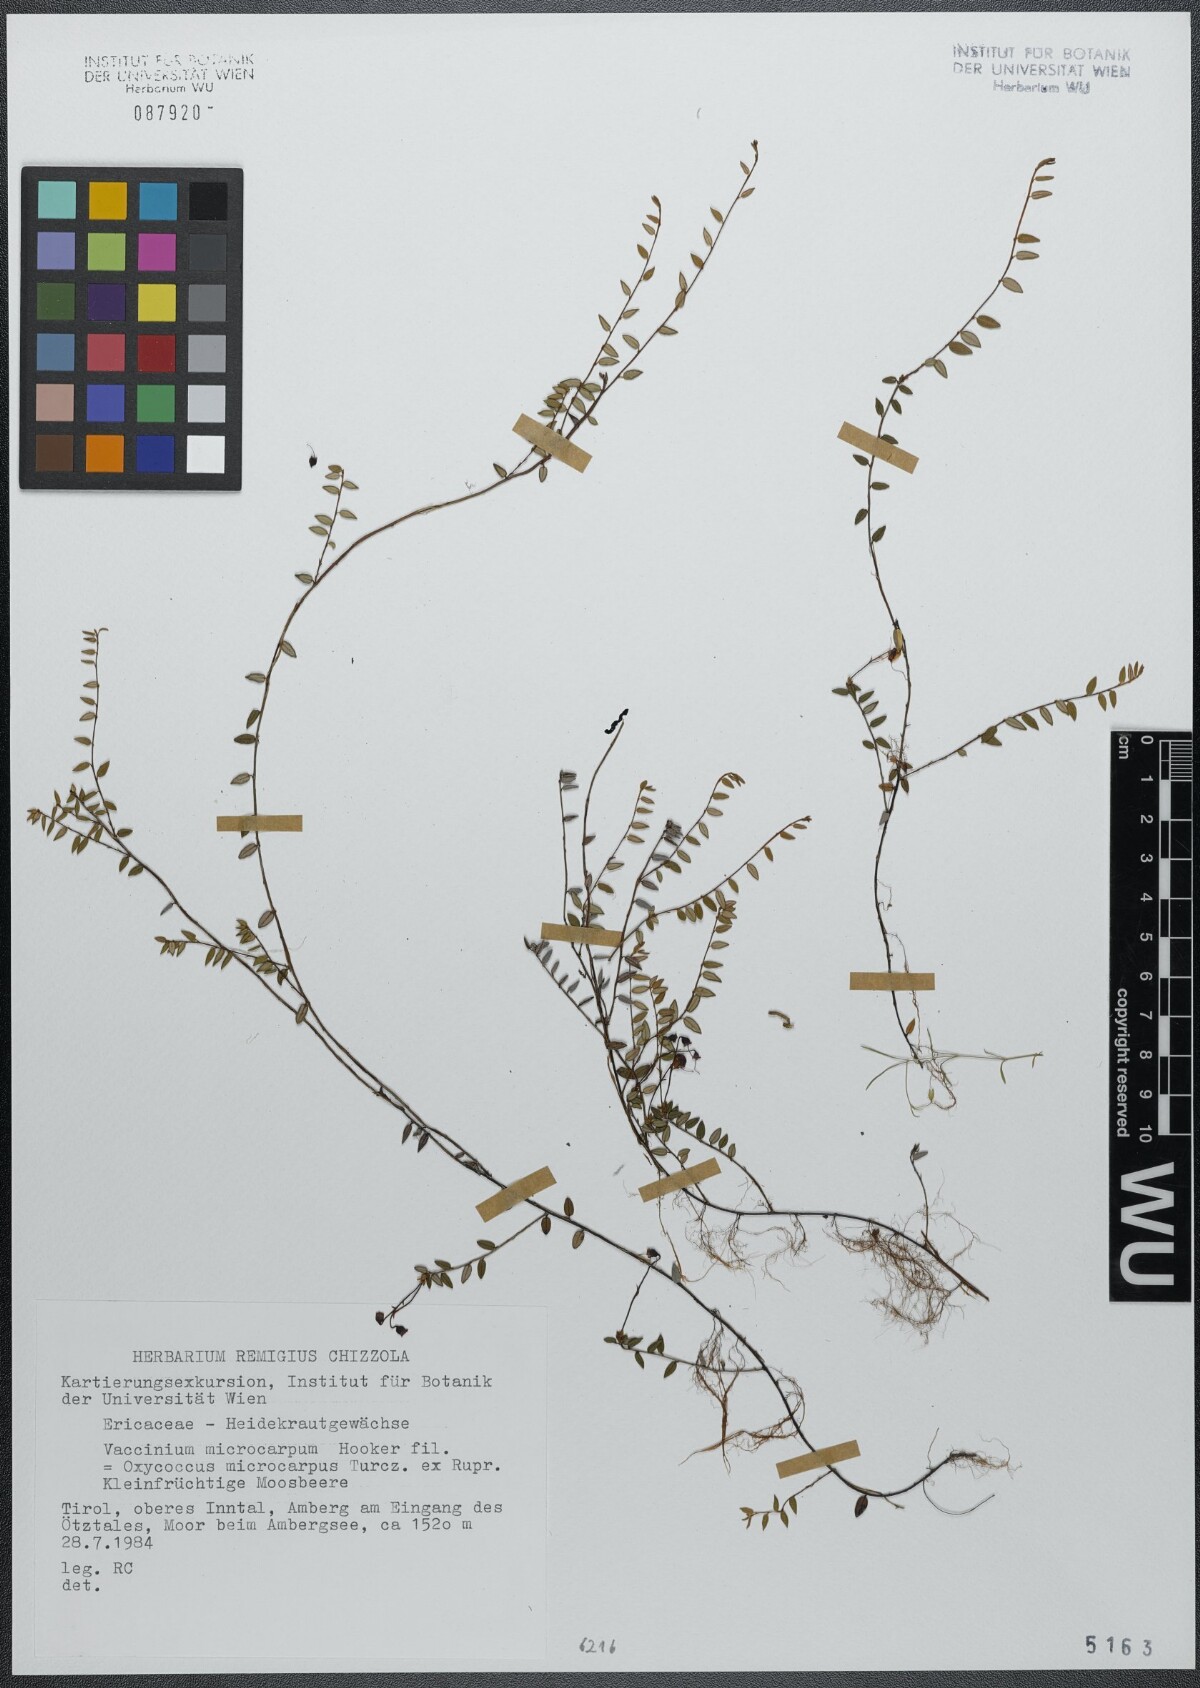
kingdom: Plantae
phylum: Tracheophyta
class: Magnoliopsida
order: Ericales
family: Ericaceae
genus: Vaccinium
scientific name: Vaccinium microcarpum
